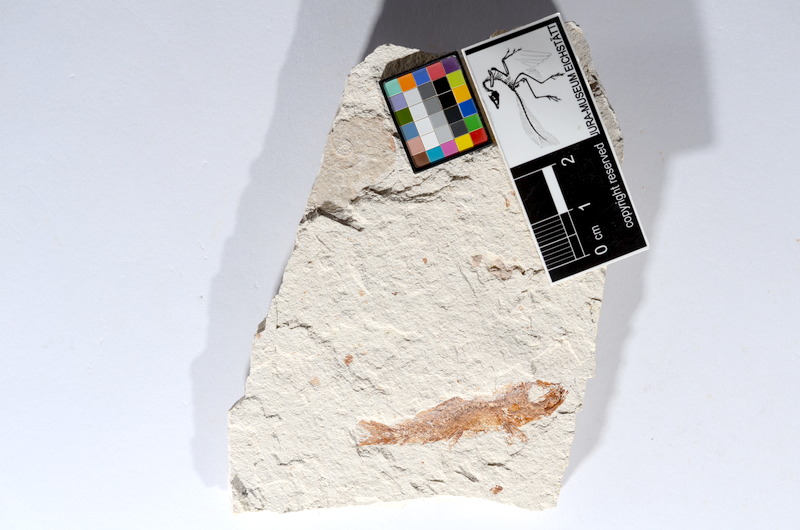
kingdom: Animalia
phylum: Chordata
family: Ascalaboidae
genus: Tharsis
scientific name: Tharsis dubius
